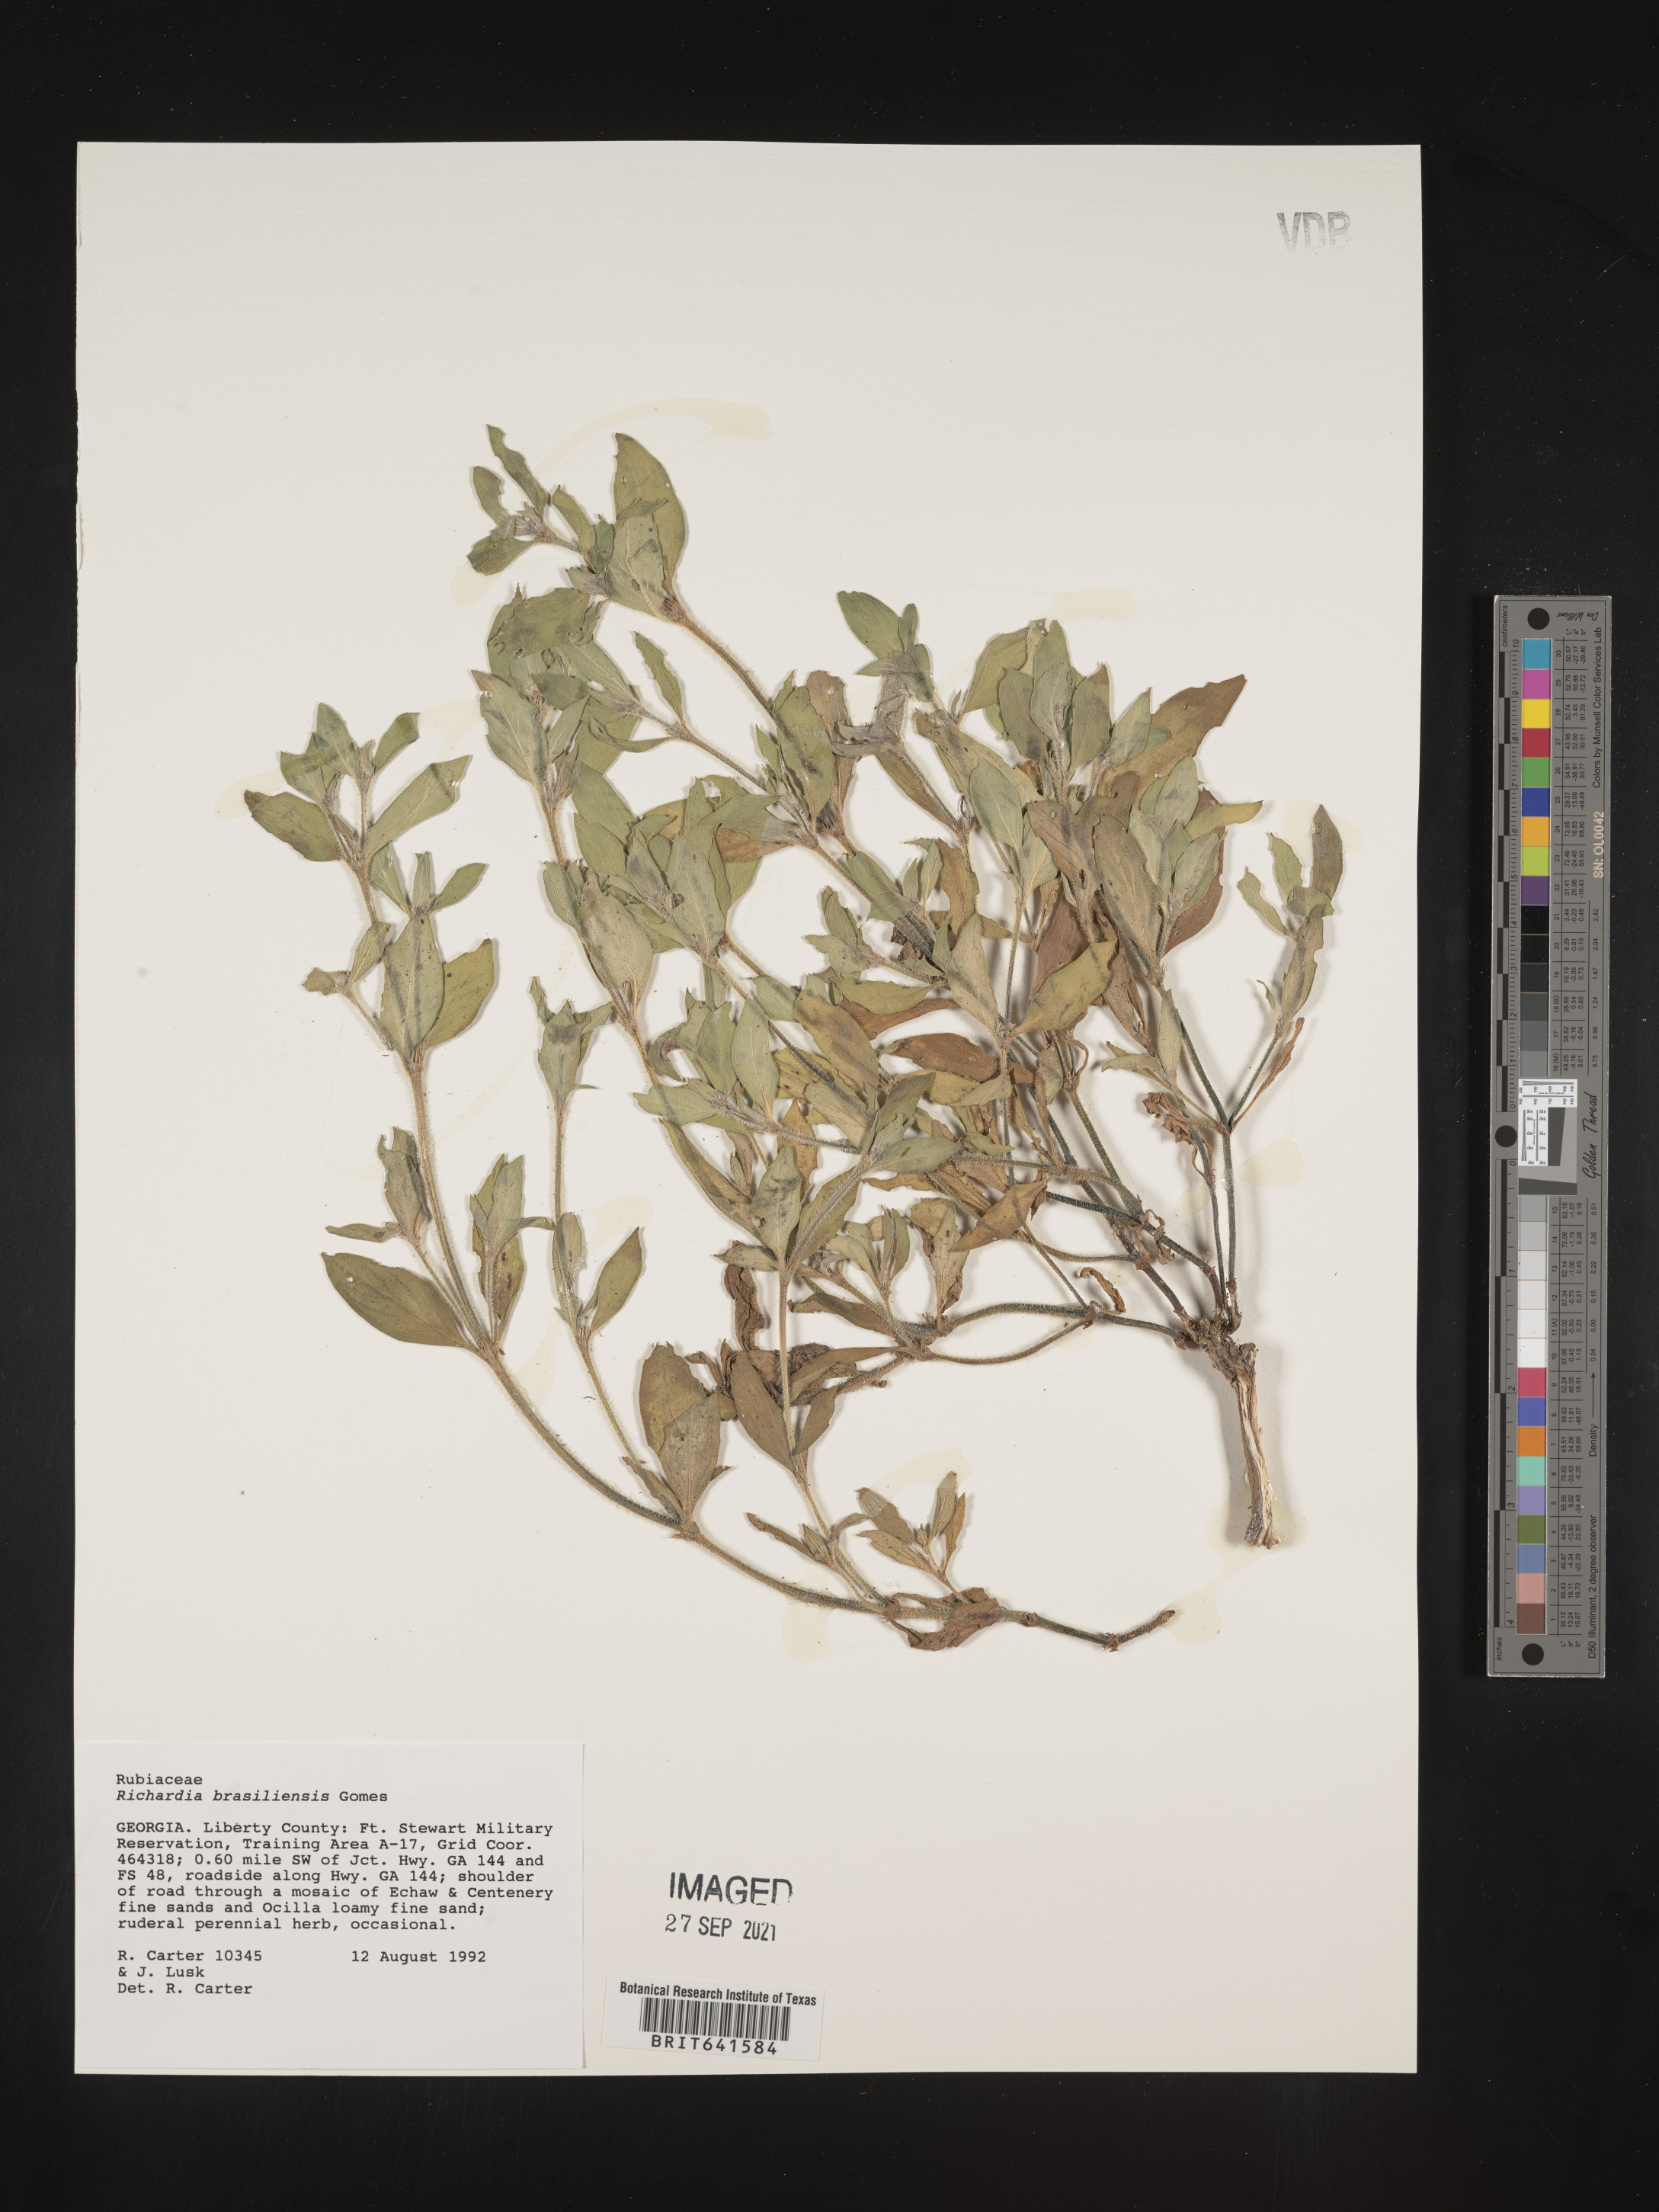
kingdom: Plantae
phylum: Tracheophyta
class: Magnoliopsida
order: Gentianales
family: Rubiaceae
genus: Richardia
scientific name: Richardia brasiliensis
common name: Tropical mexican clover
